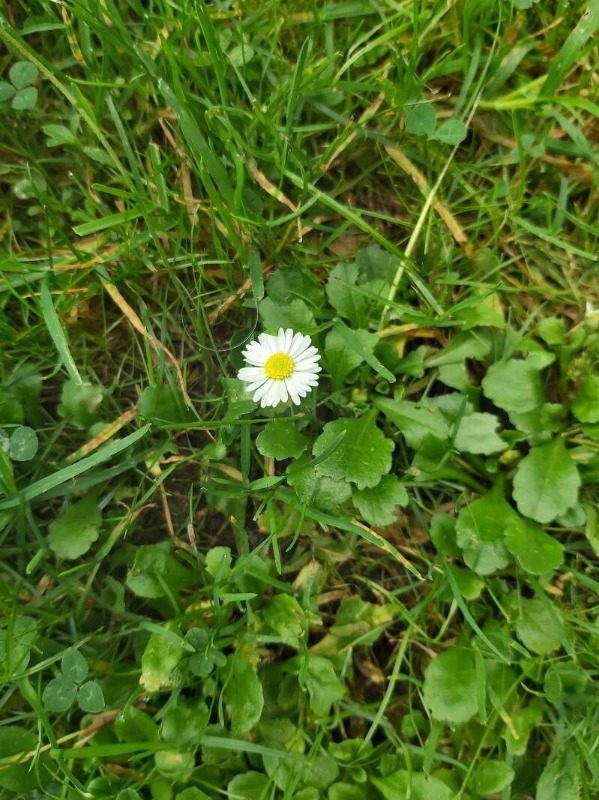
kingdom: Plantae
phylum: Tracheophyta
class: Magnoliopsida
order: Asterales
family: Asteraceae
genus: Bellis
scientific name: Bellis perennis
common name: Tusindfryd
